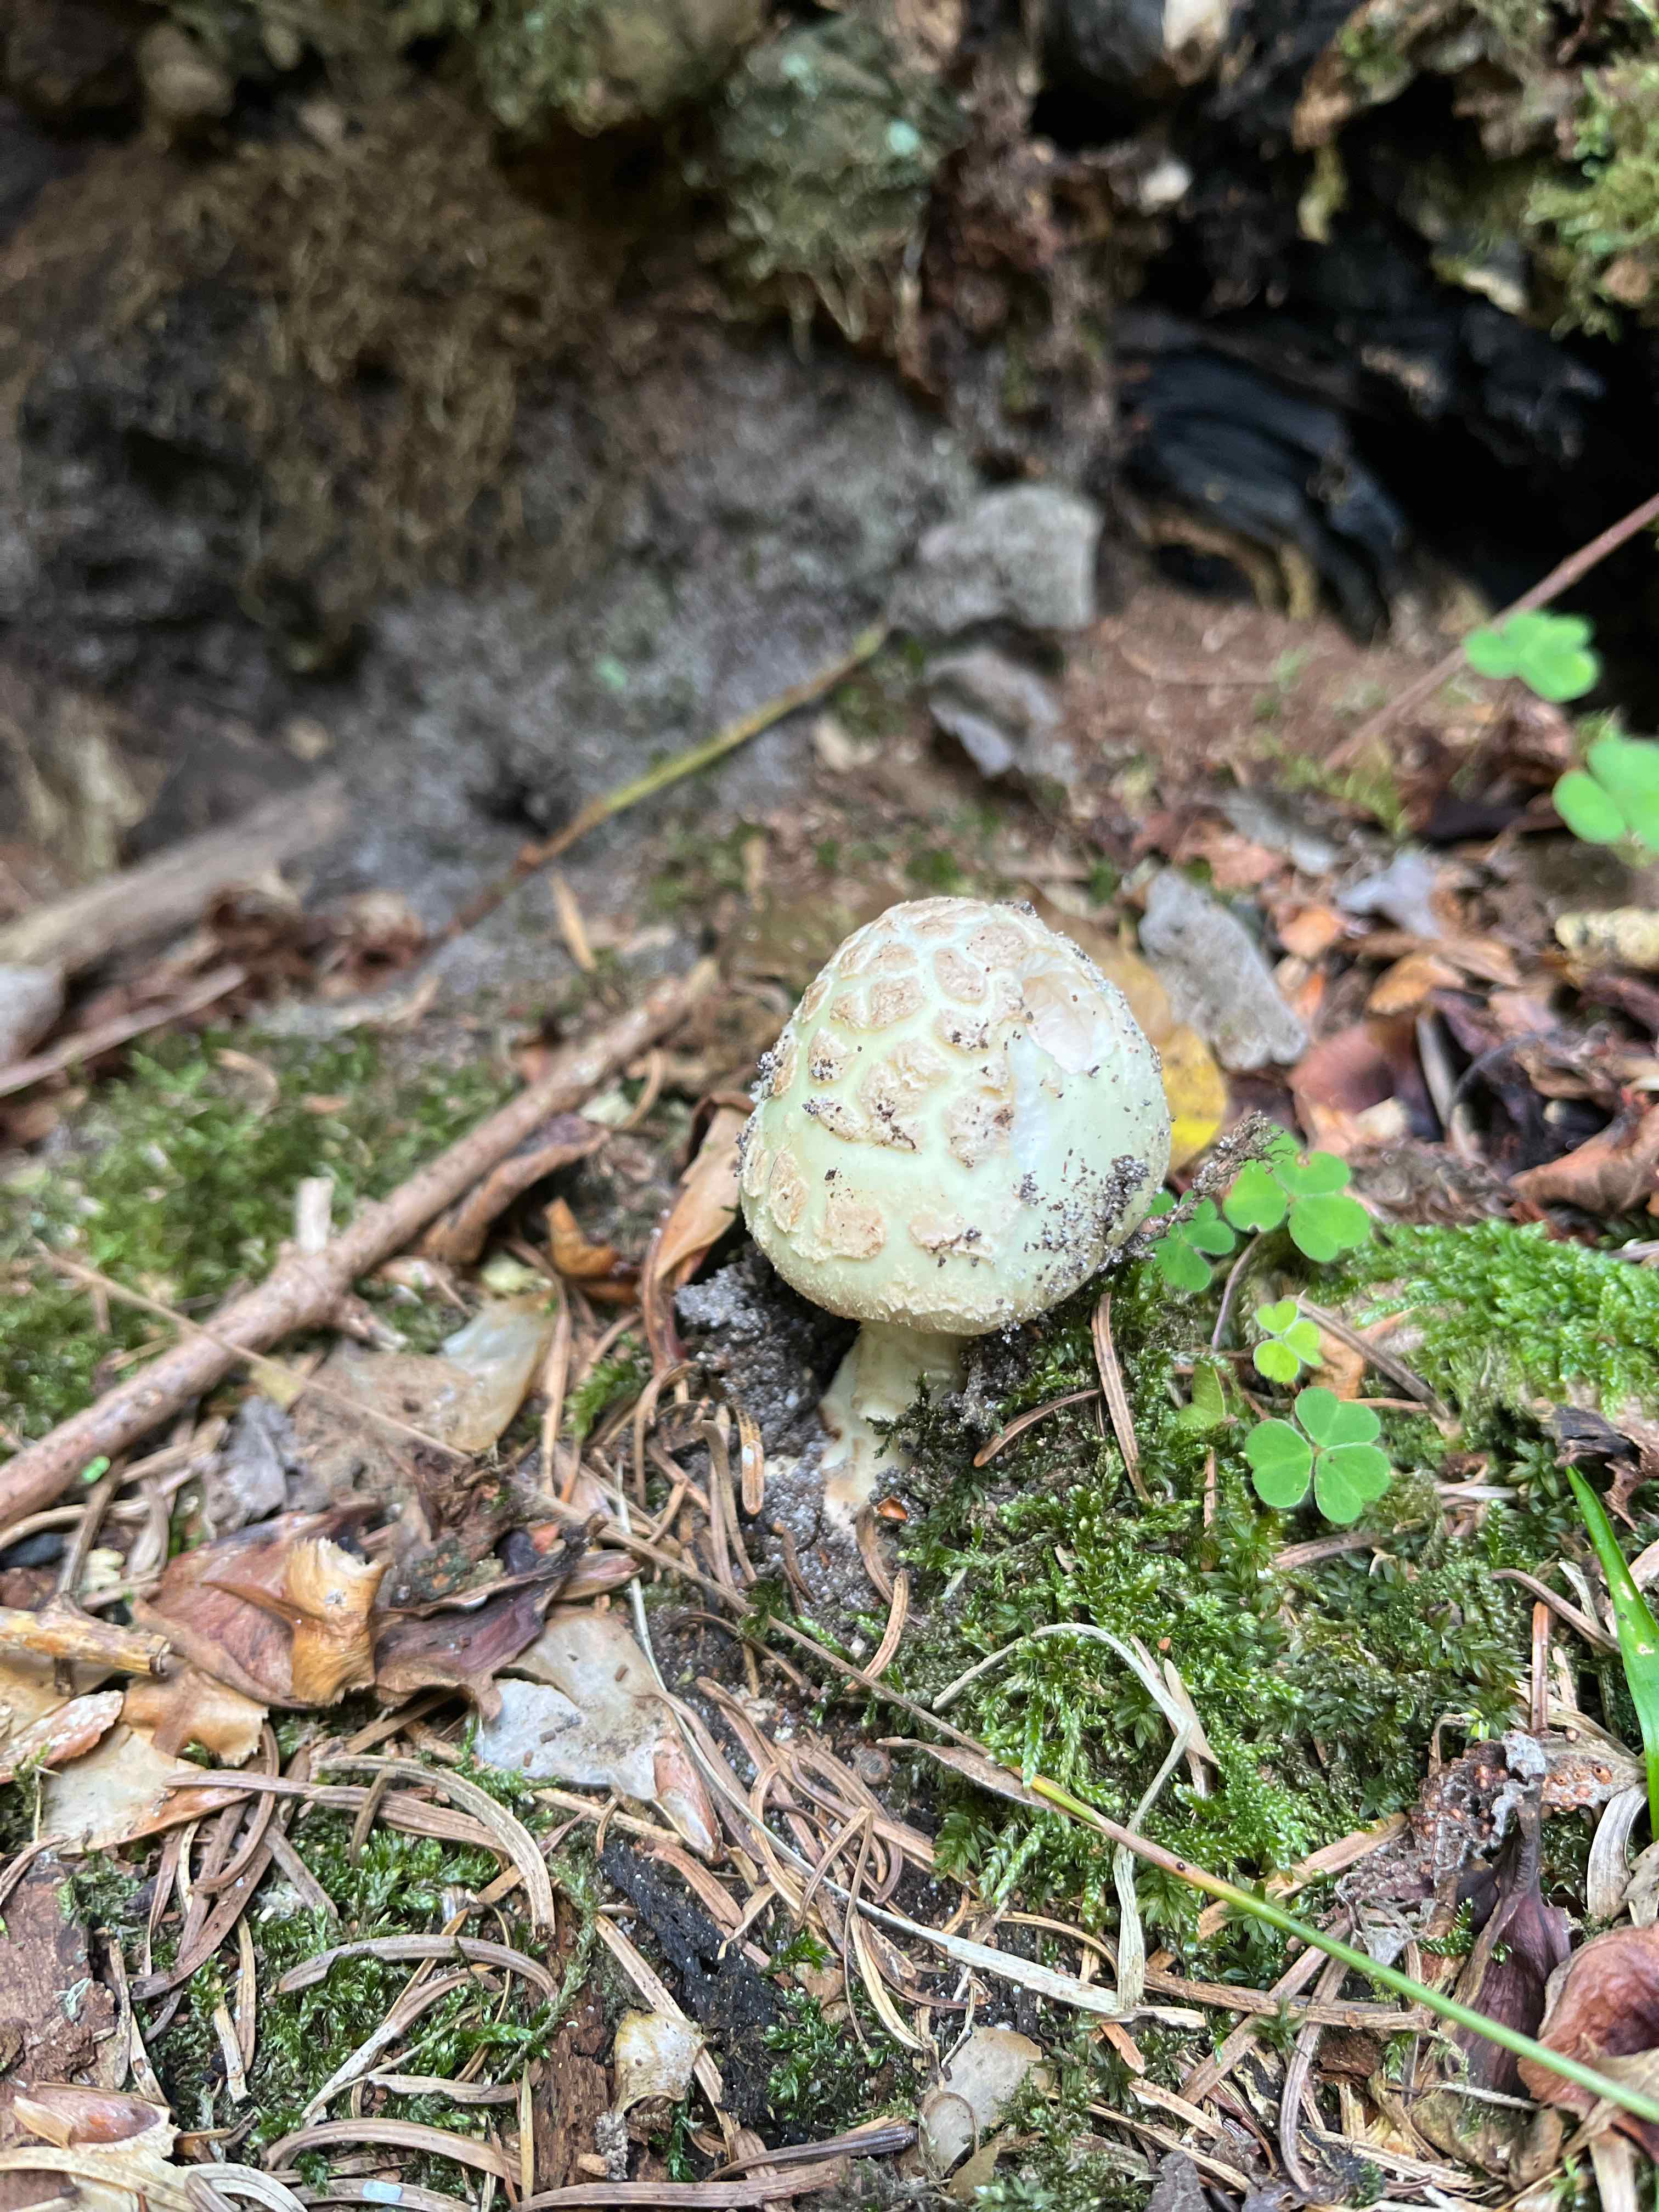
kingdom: Fungi
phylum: Basidiomycota
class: Agaricomycetes
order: Agaricales
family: Amanitaceae
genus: Amanita
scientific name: Amanita citrina
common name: kugleknoldet fluesvamp
